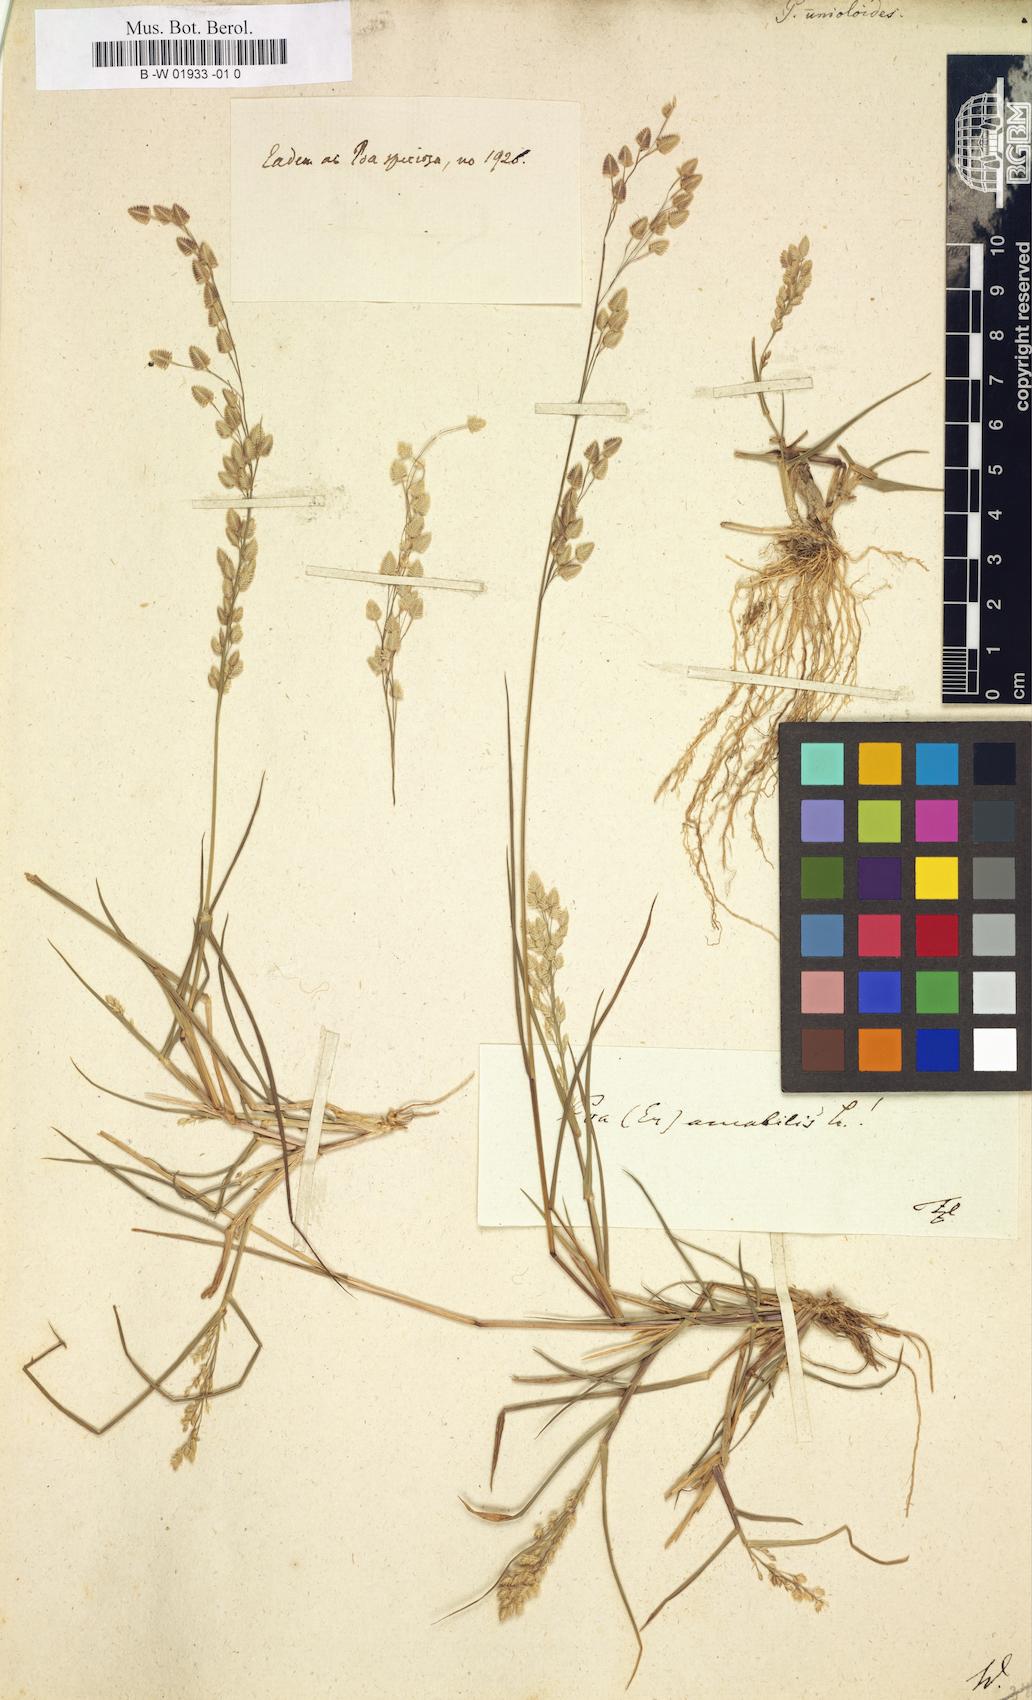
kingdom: Plantae
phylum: Tracheophyta
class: Liliopsida
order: Poales
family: Poaceae
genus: Eragrostis
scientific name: Eragrostis
